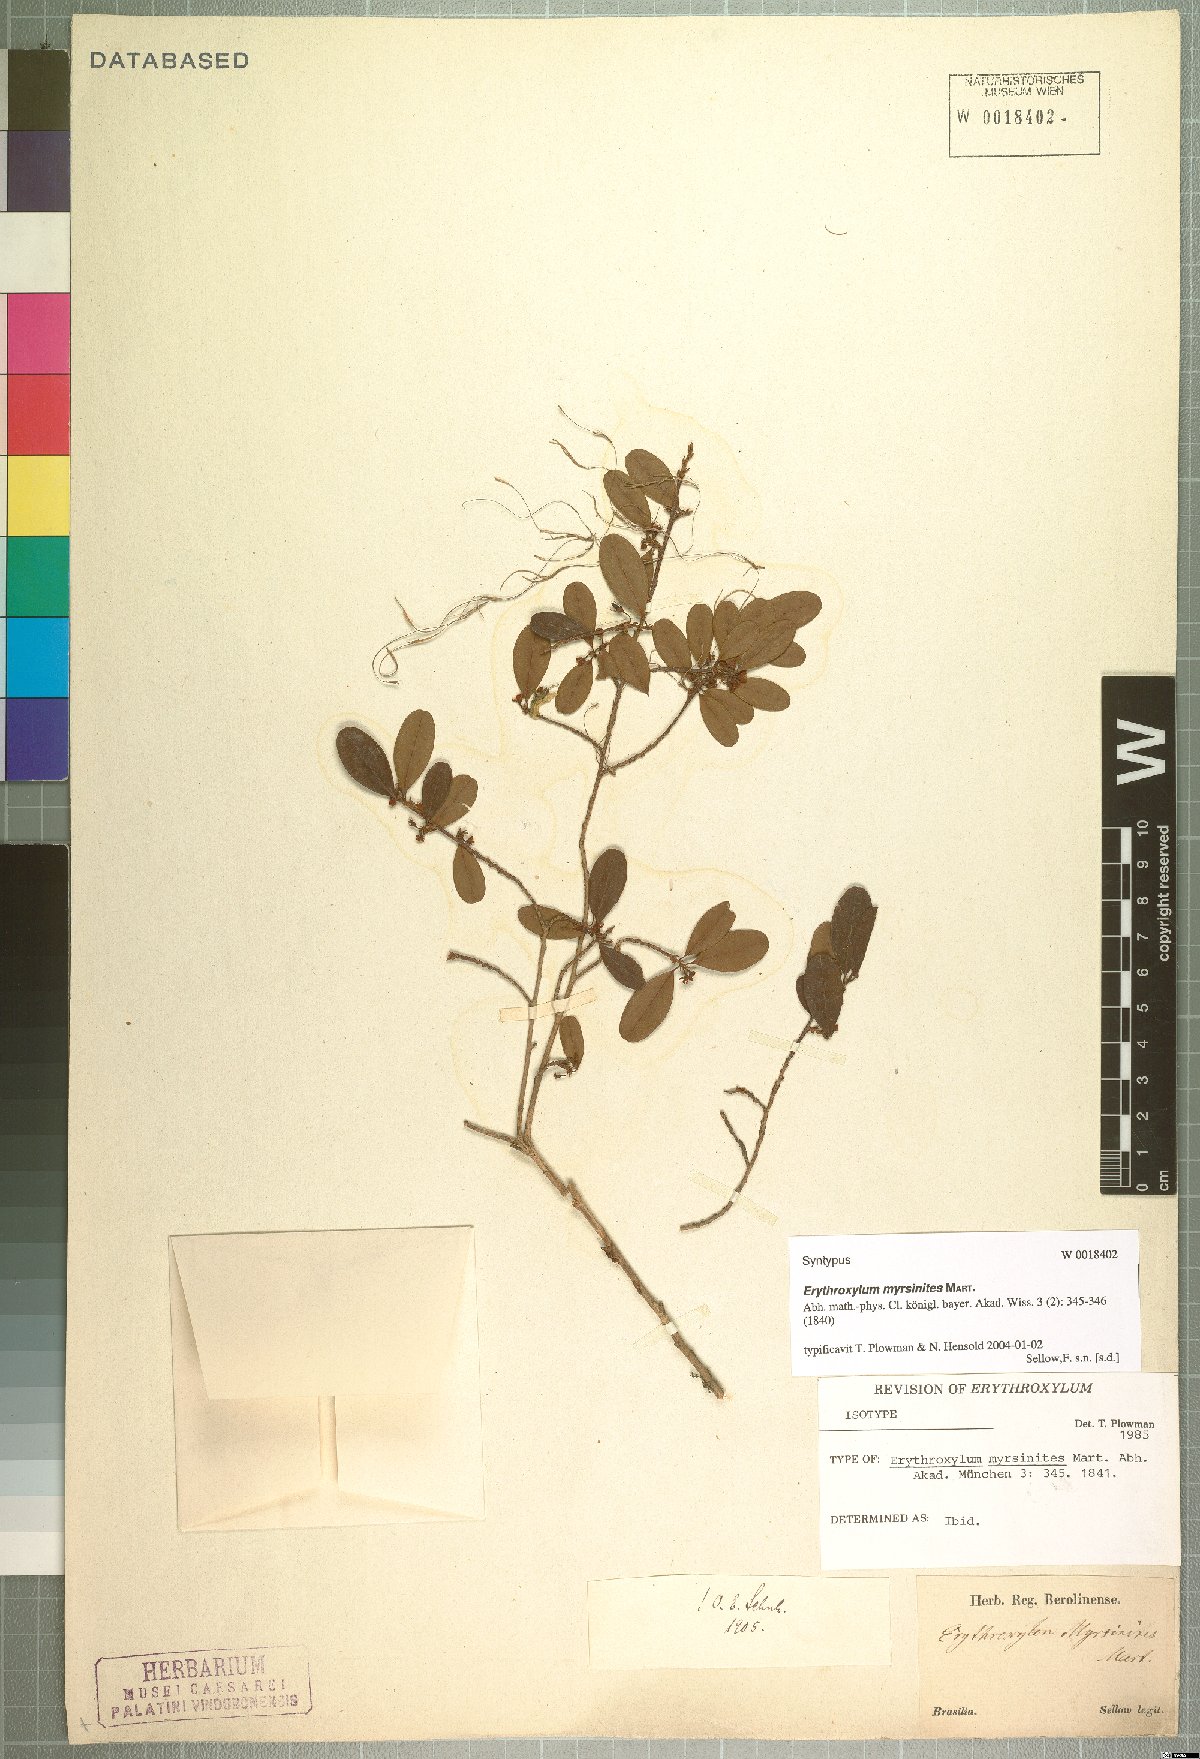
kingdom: Plantae
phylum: Tracheophyta
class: Magnoliopsida
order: Malpighiales
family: Erythroxylaceae
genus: Erythroxylum
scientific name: Erythroxylum myrsinites
